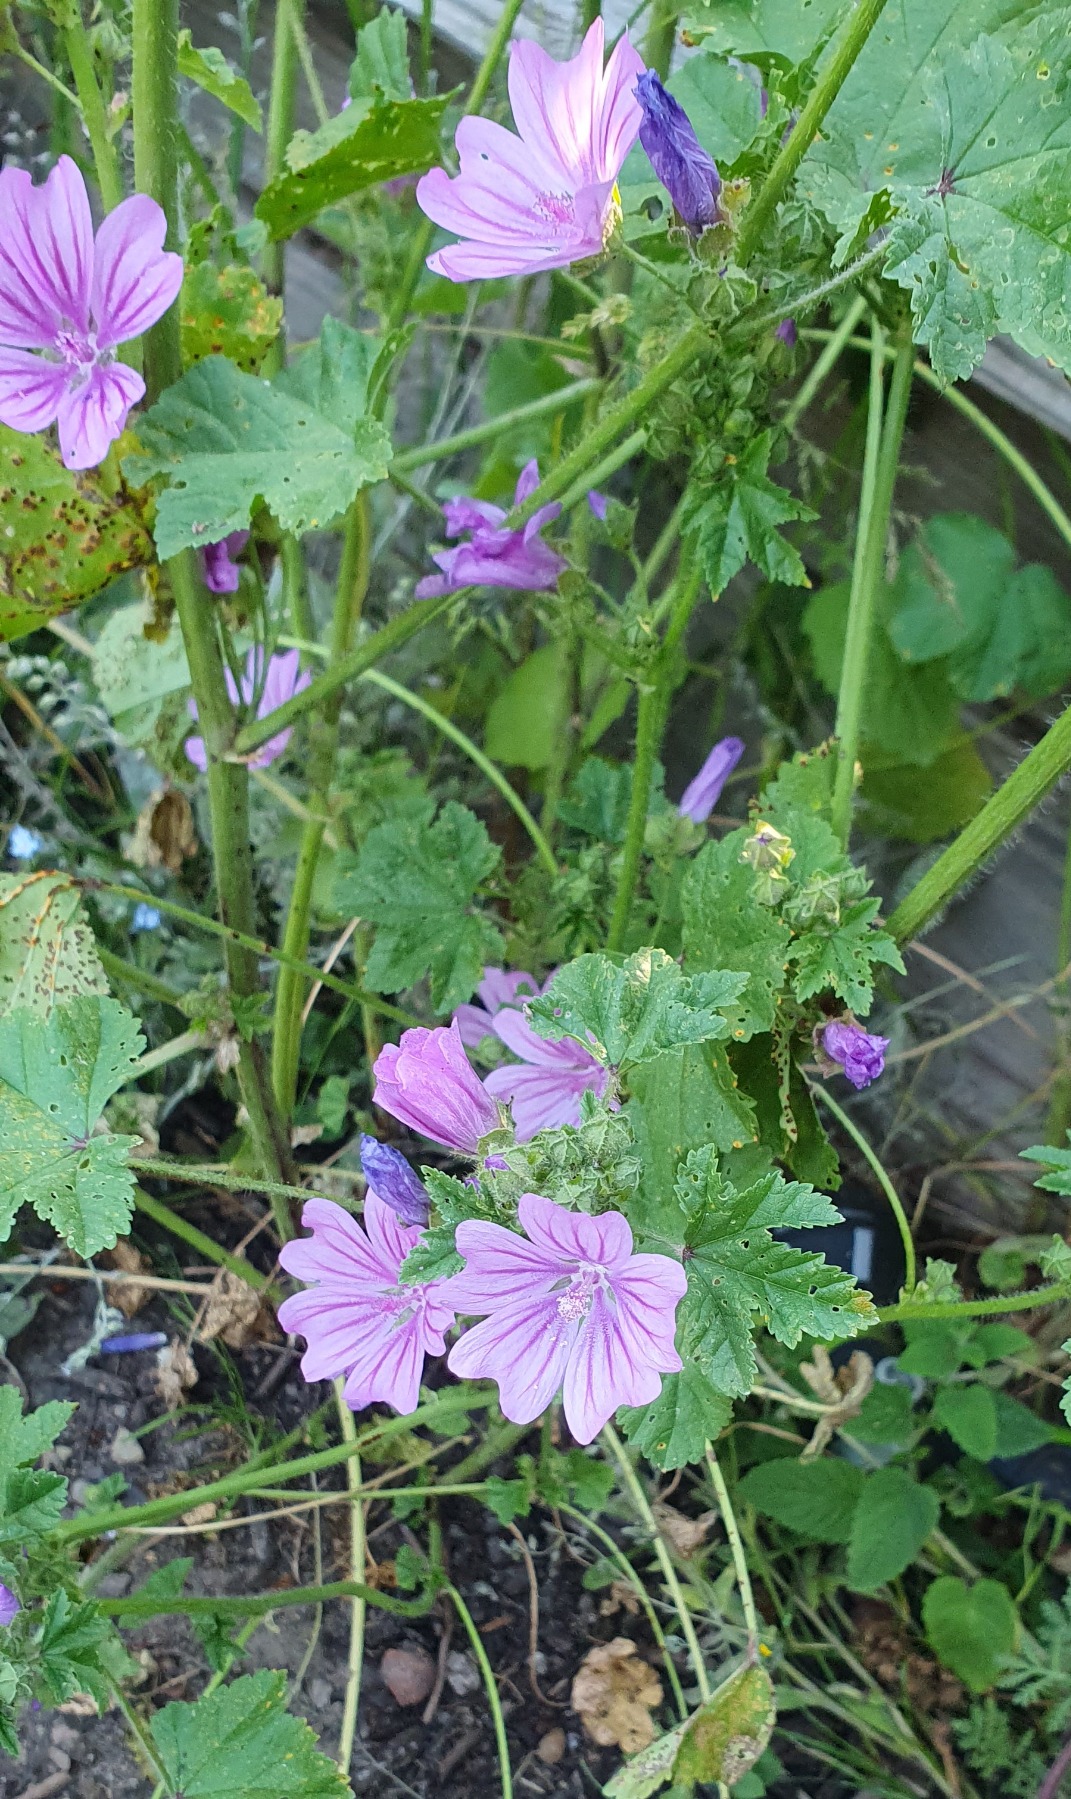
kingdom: Plantae
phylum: Tracheophyta
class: Magnoliopsida
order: Malvales
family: Malvaceae
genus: Malva
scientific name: Malva sylvestris
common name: Almindelig katost
